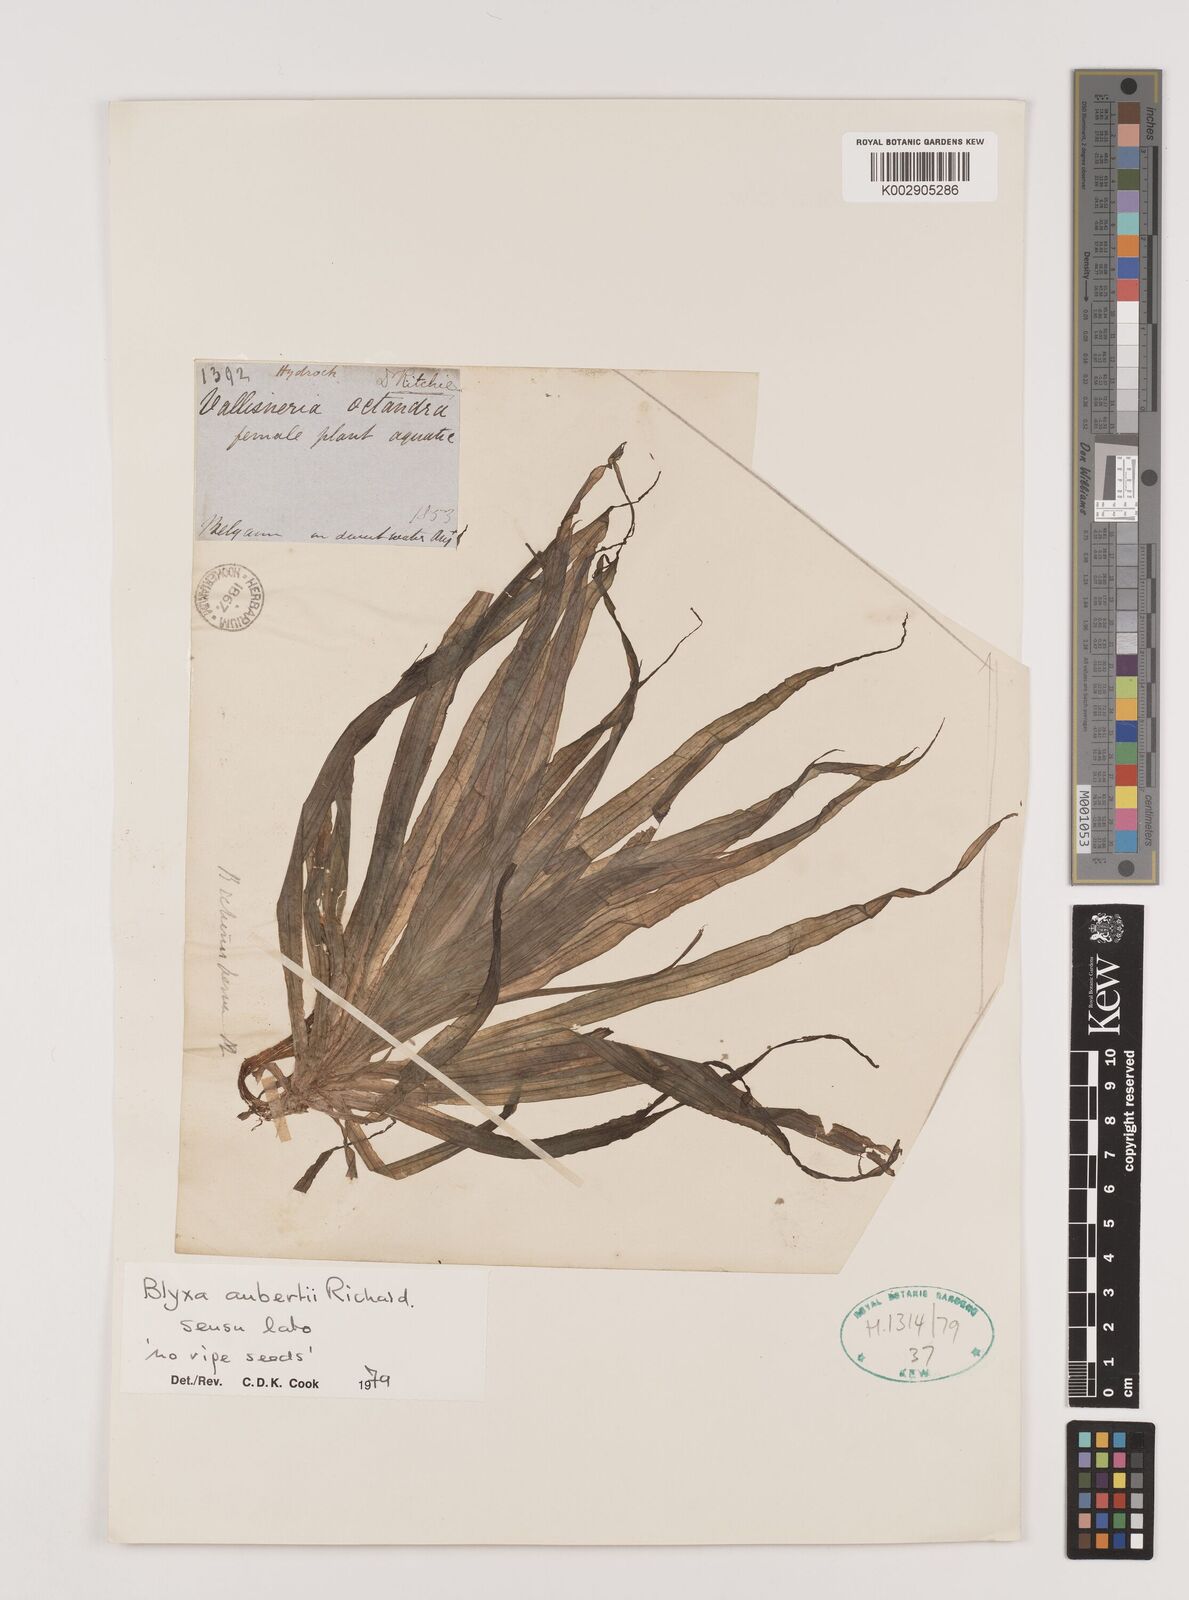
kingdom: Plantae
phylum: Tracheophyta
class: Liliopsida
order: Alismatales
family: Hydrocharitaceae
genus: Blyxa
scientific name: Blyxa aubertii
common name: Roundfruit blyxa
